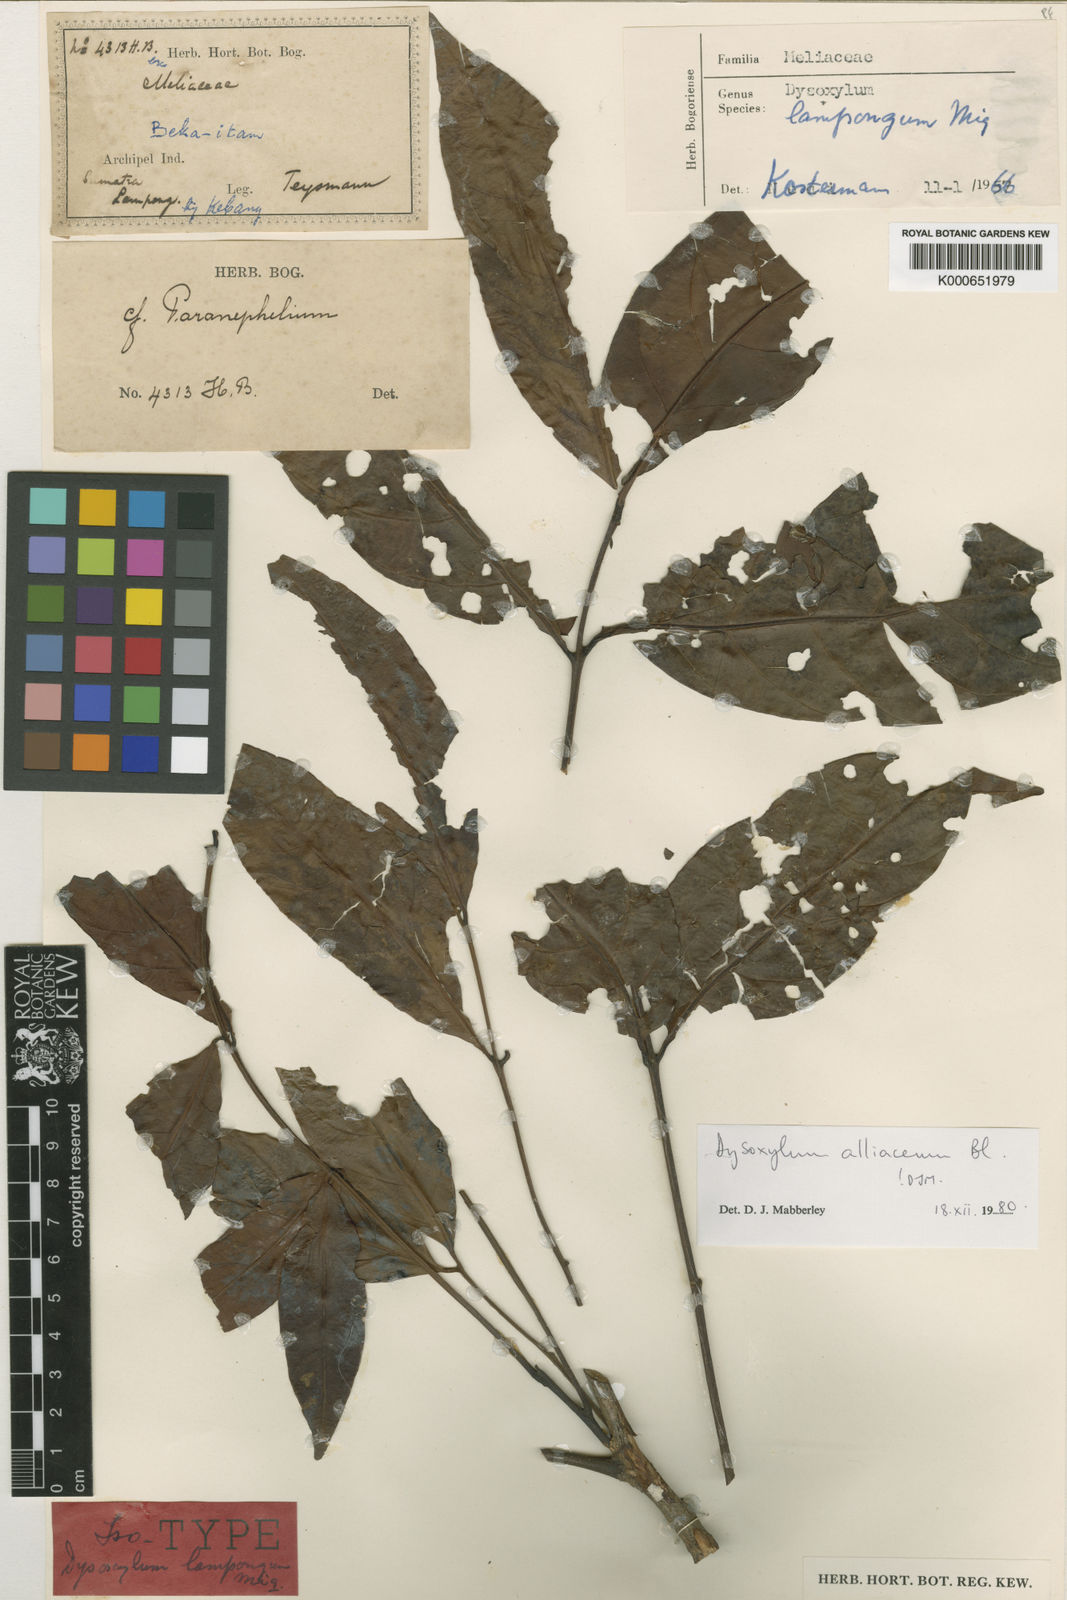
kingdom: Plantae
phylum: Tracheophyta
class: Magnoliopsida
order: Sapindales
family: Meliaceae
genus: Prasoxylon
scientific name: Prasoxylon alliaceum
